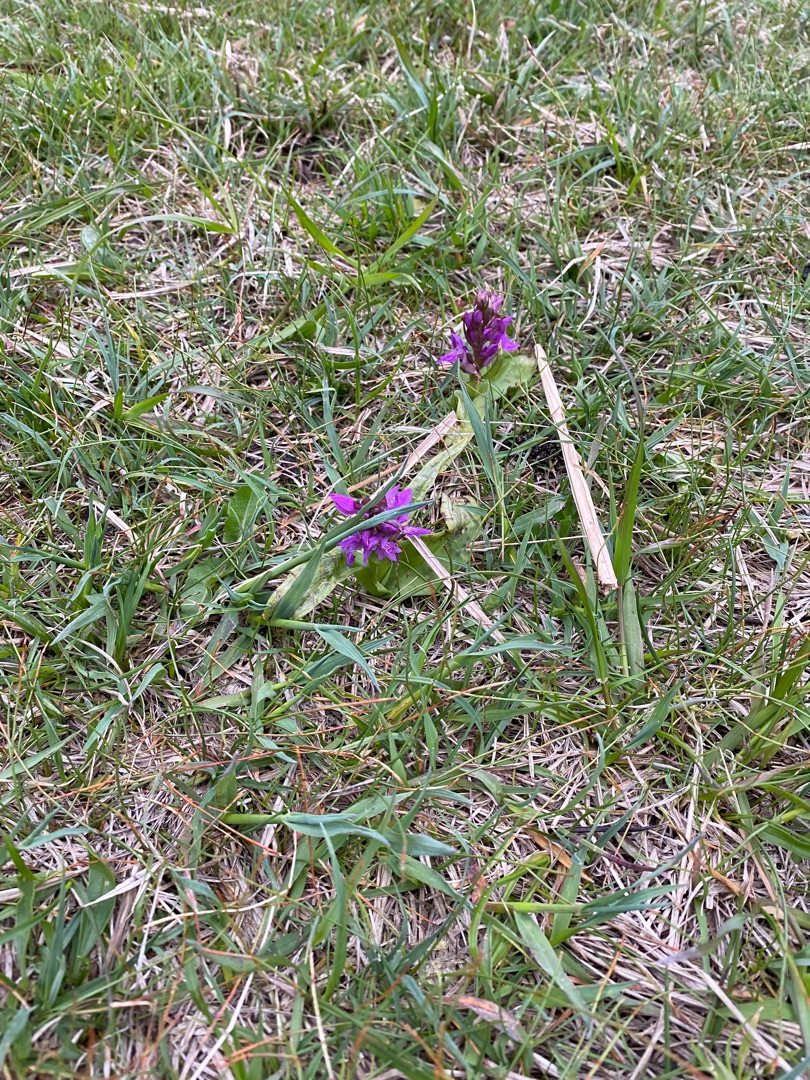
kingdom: Plantae
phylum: Tracheophyta
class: Liliopsida
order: Asparagales
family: Orchidaceae
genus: Dactylorhiza
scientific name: Dactylorhiza majalis
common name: Maj-gøgeurt
